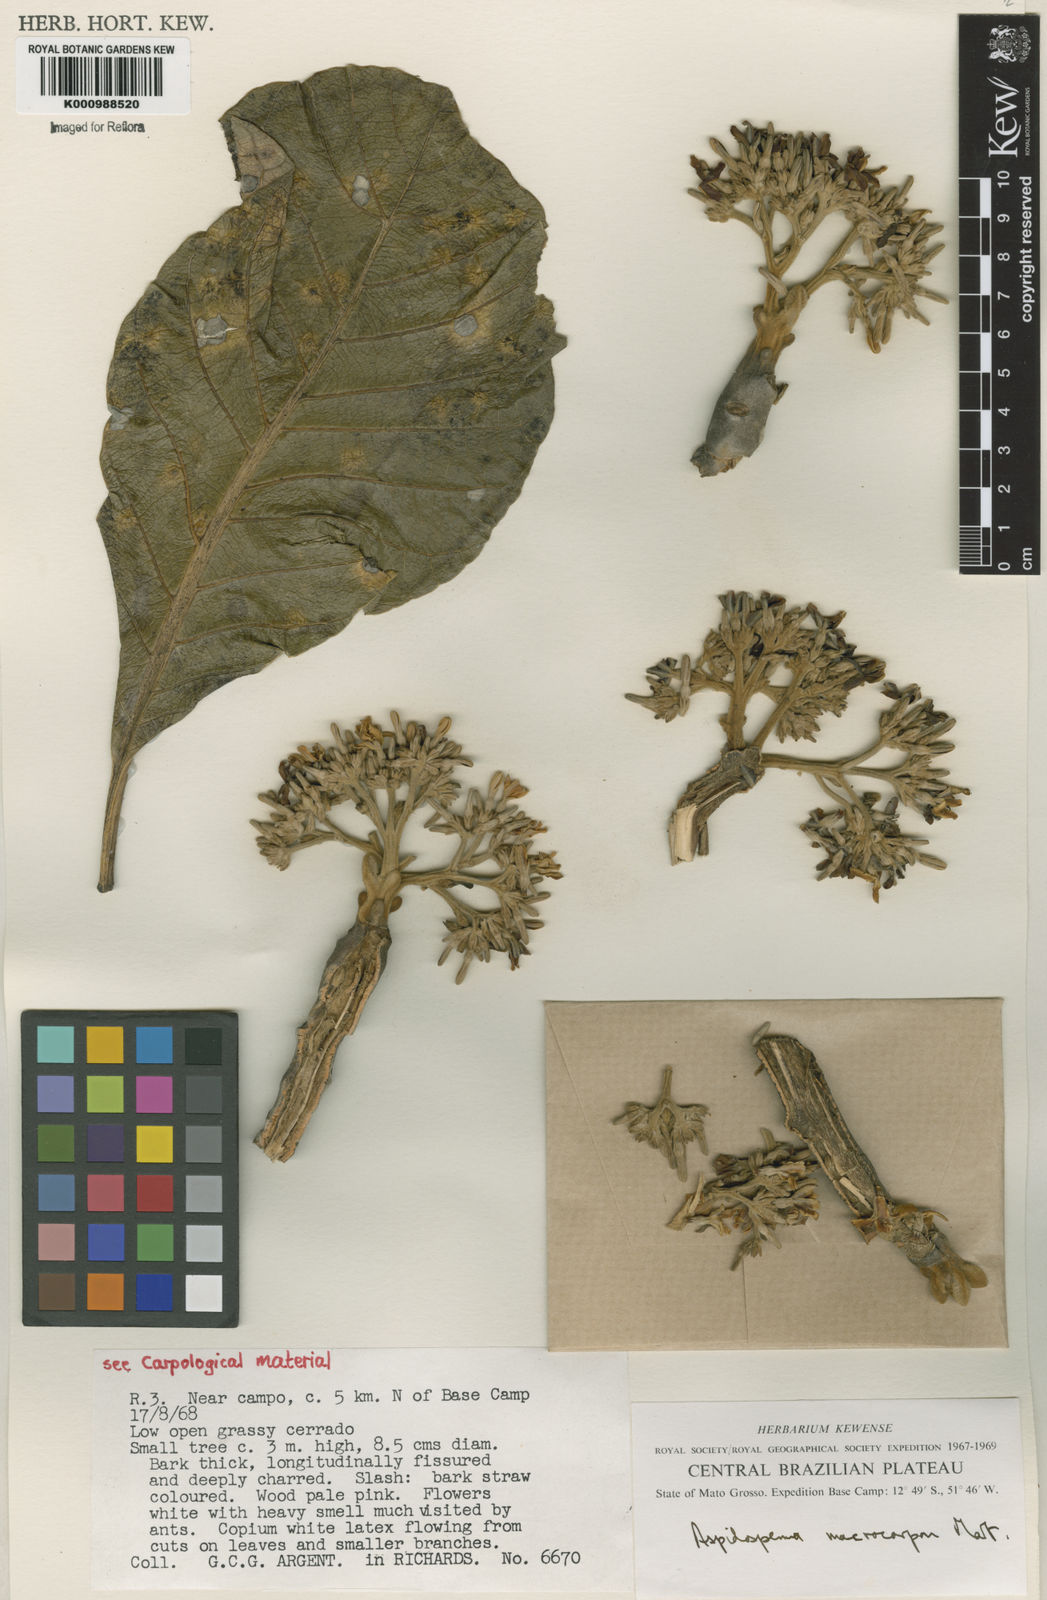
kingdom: Plantae
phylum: Tracheophyta
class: Magnoliopsida
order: Gentianales
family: Apocynaceae
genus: Aspidosperma
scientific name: Aspidosperma macrocarpon
